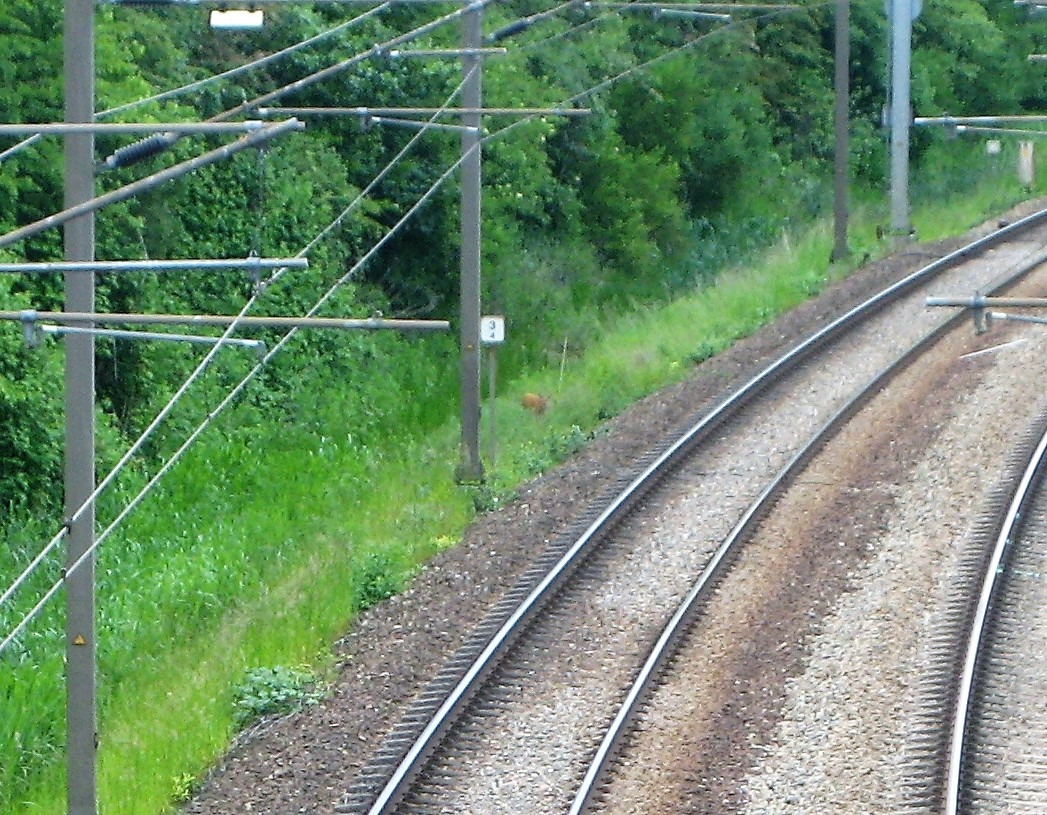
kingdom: Animalia
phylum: Chordata
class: Mammalia
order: Artiodactyla
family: Cervidae
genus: Capreolus
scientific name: Capreolus capreolus
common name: Rådyr
